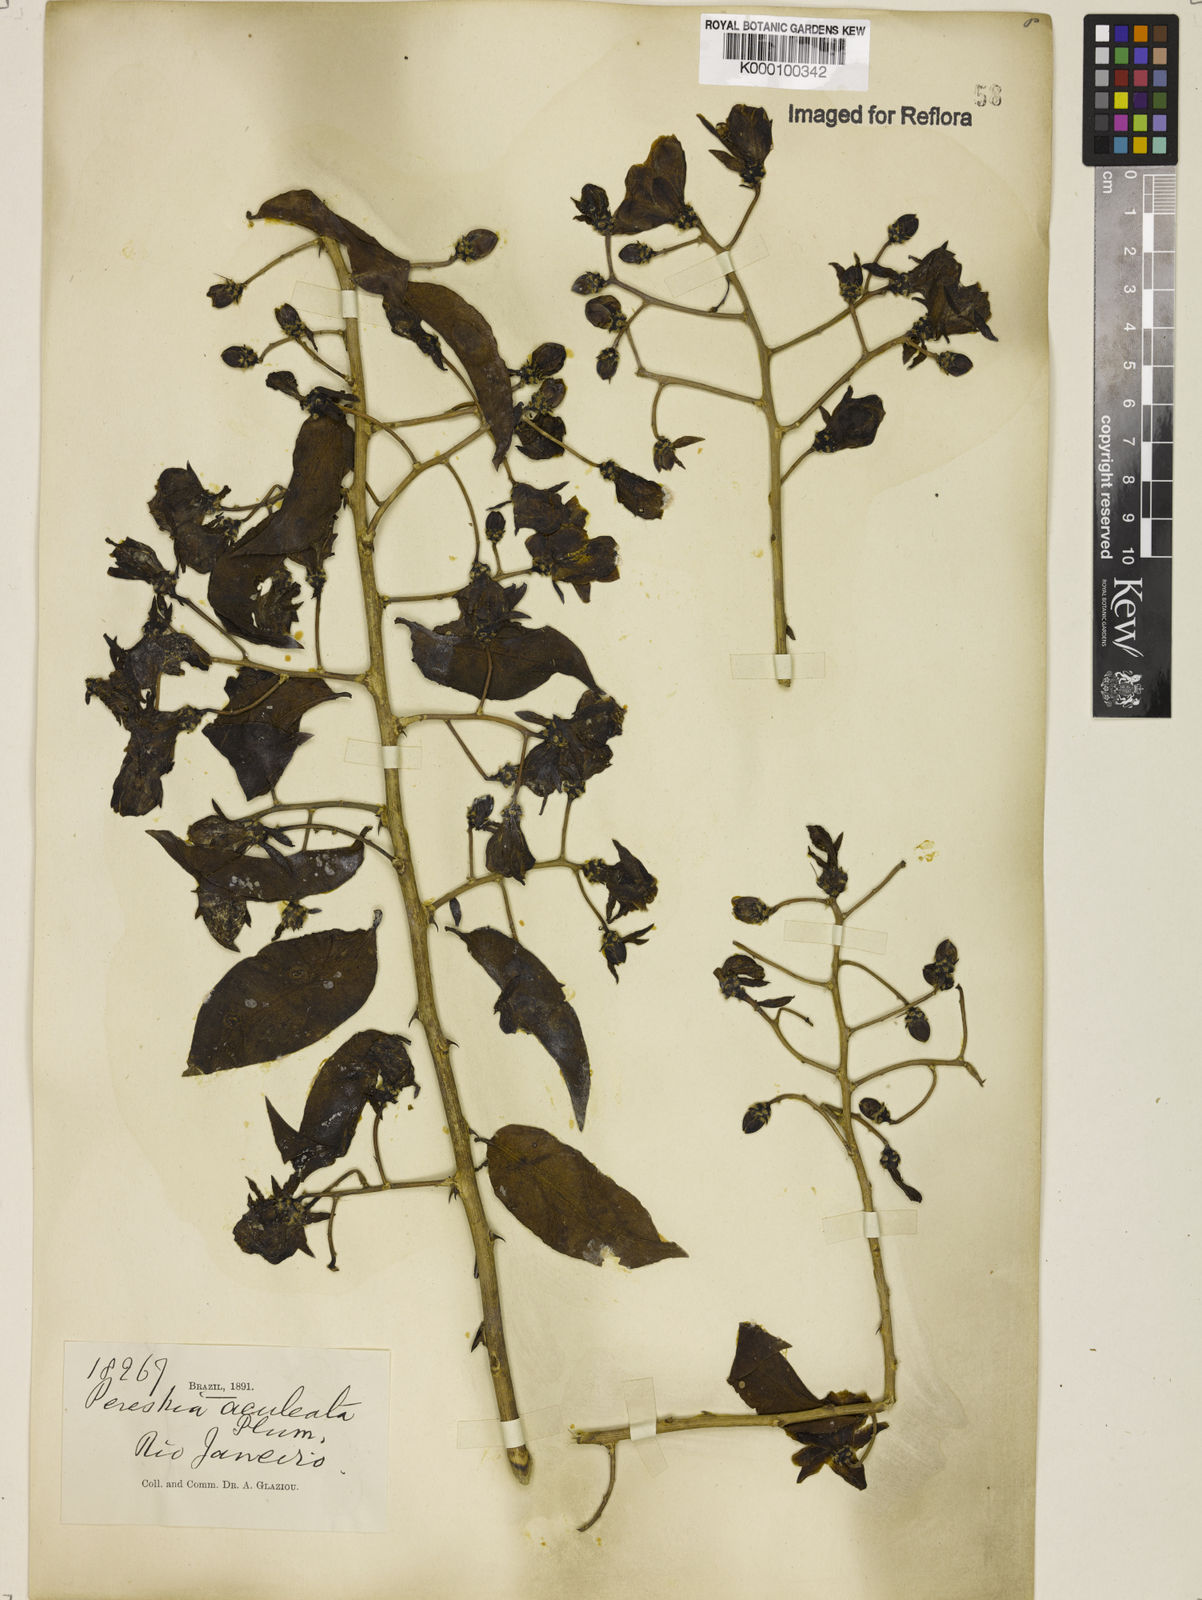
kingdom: Plantae
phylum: Tracheophyta
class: Magnoliopsida
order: Caryophyllales
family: Cactaceae
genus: Pereskia
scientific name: Pereskia aculeata
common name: Barbados gooseberry
